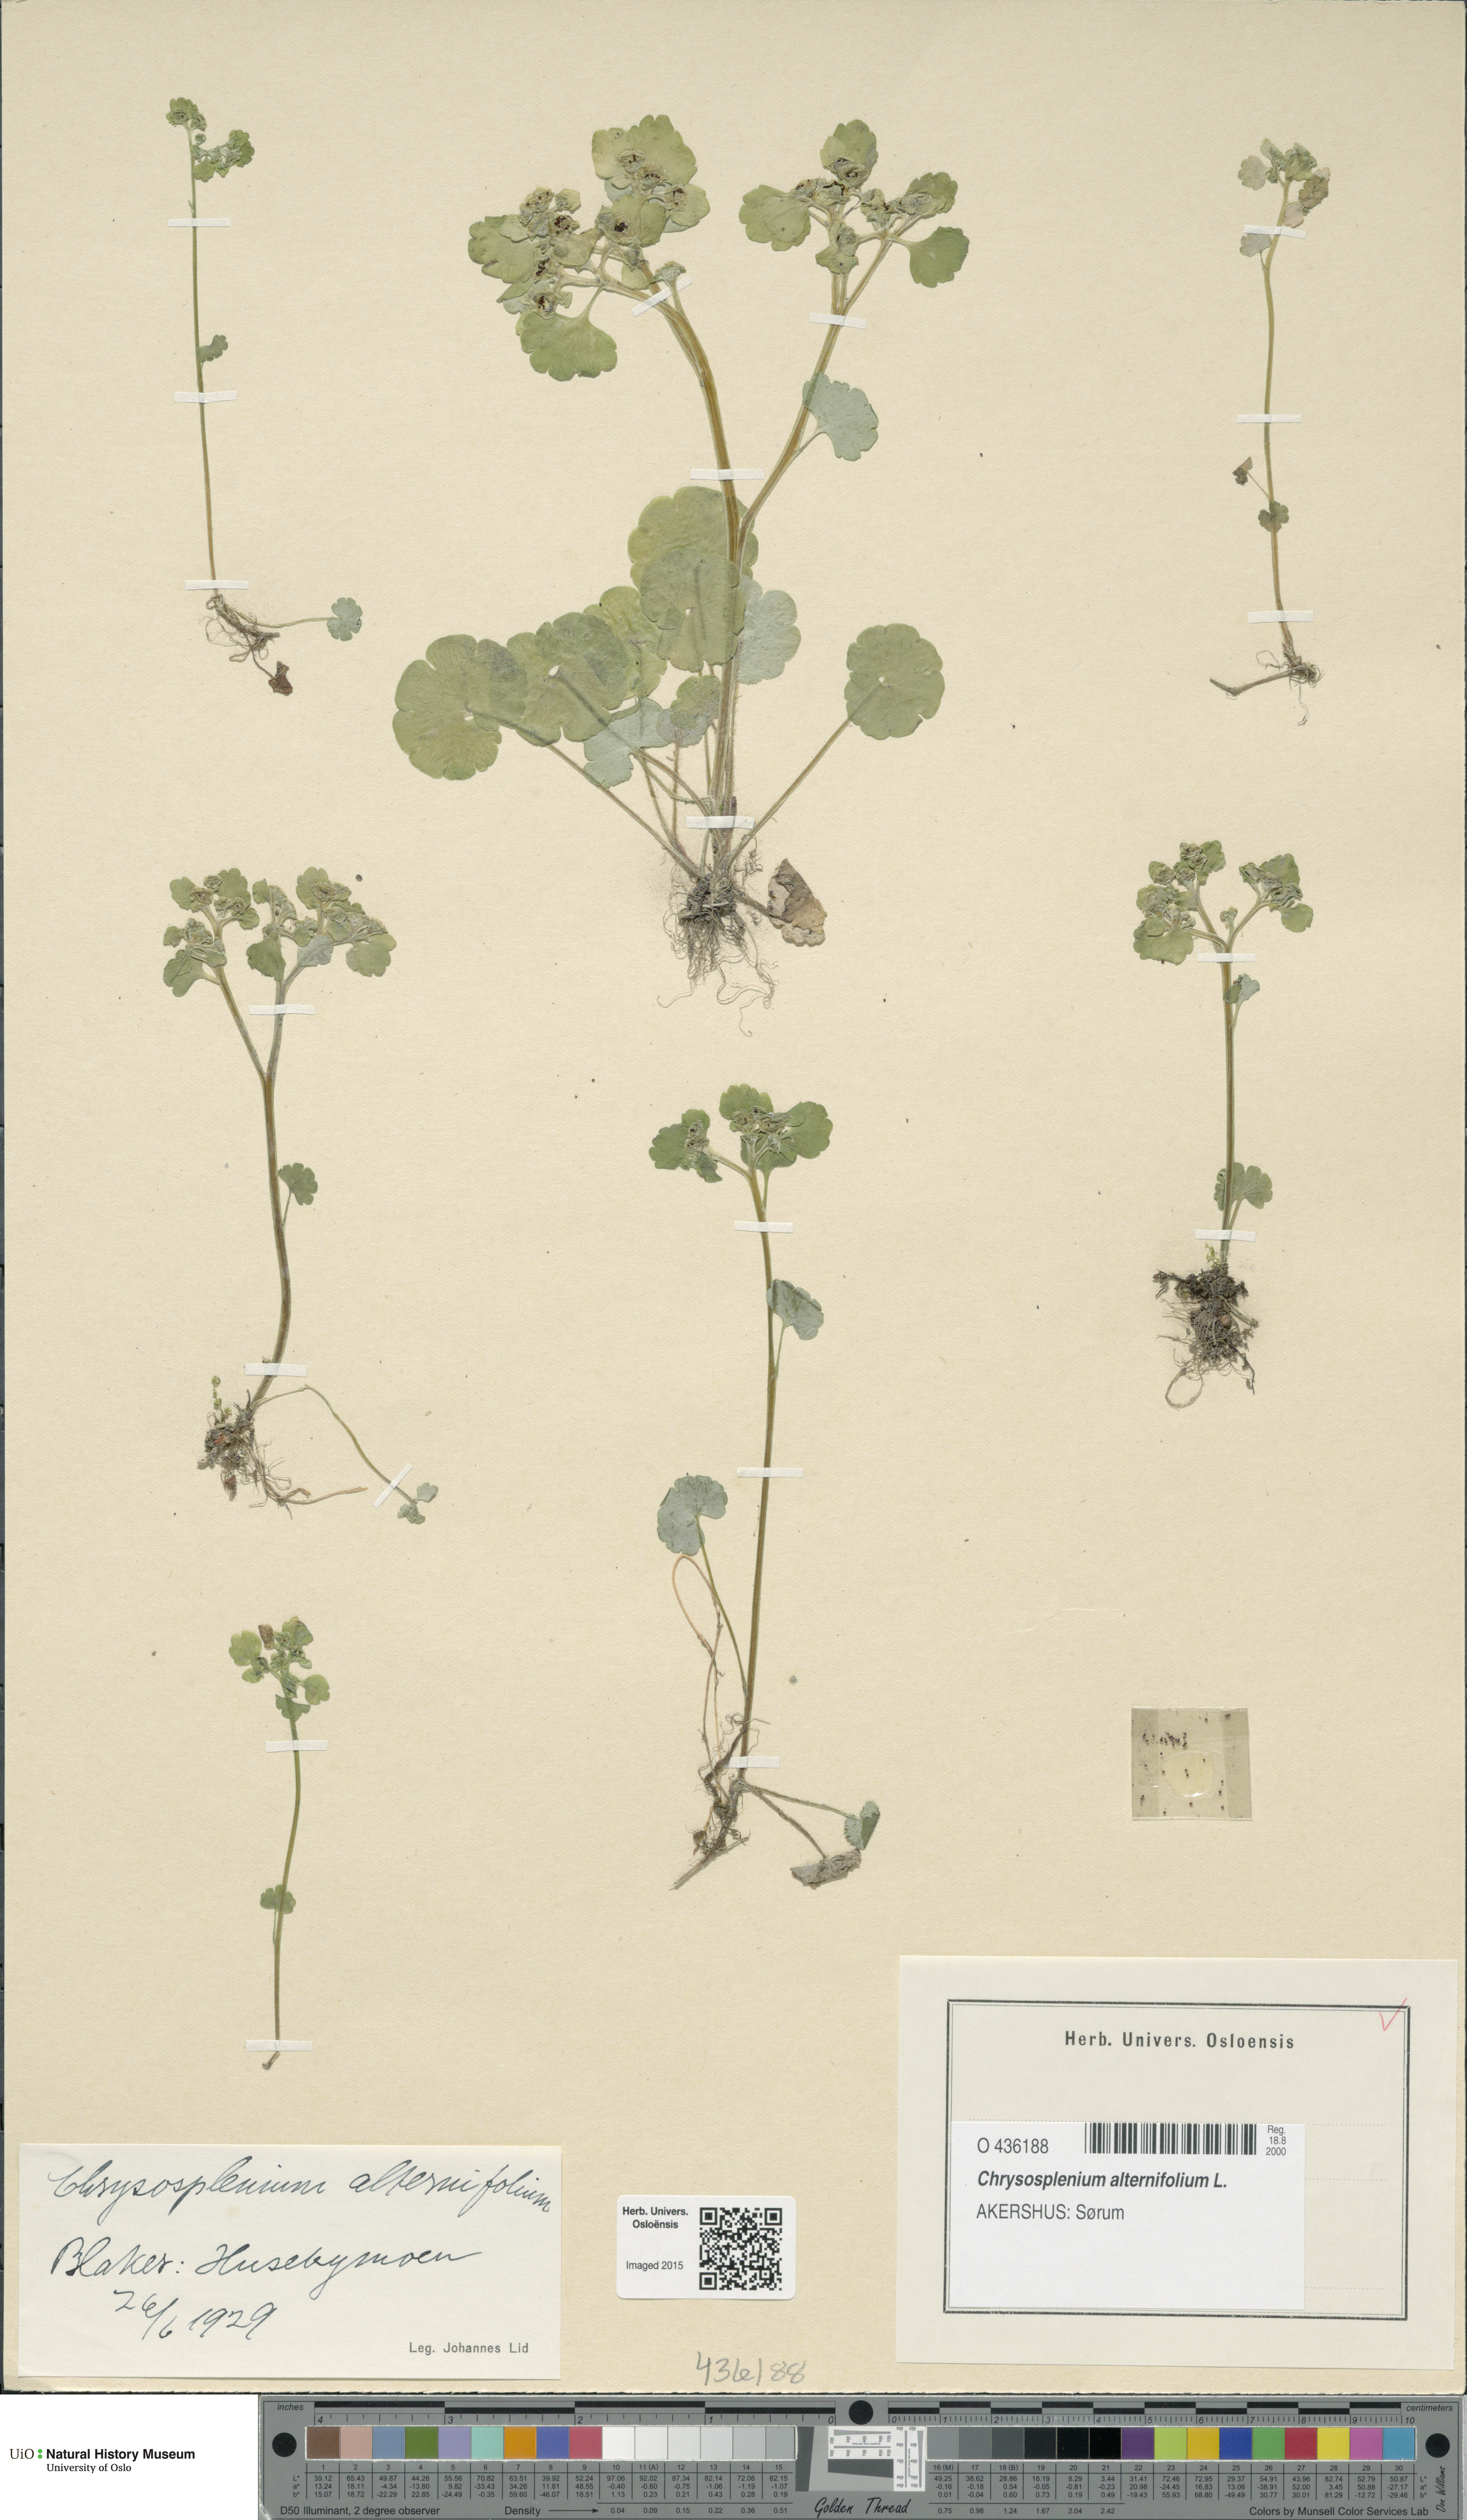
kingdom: Plantae
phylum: Tracheophyta
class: Magnoliopsida
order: Saxifragales
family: Saxifragaceae
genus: Chrysosplenium
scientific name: Chrysosplenium alternifolium
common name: Alternate-leaved golden-saxifrage
